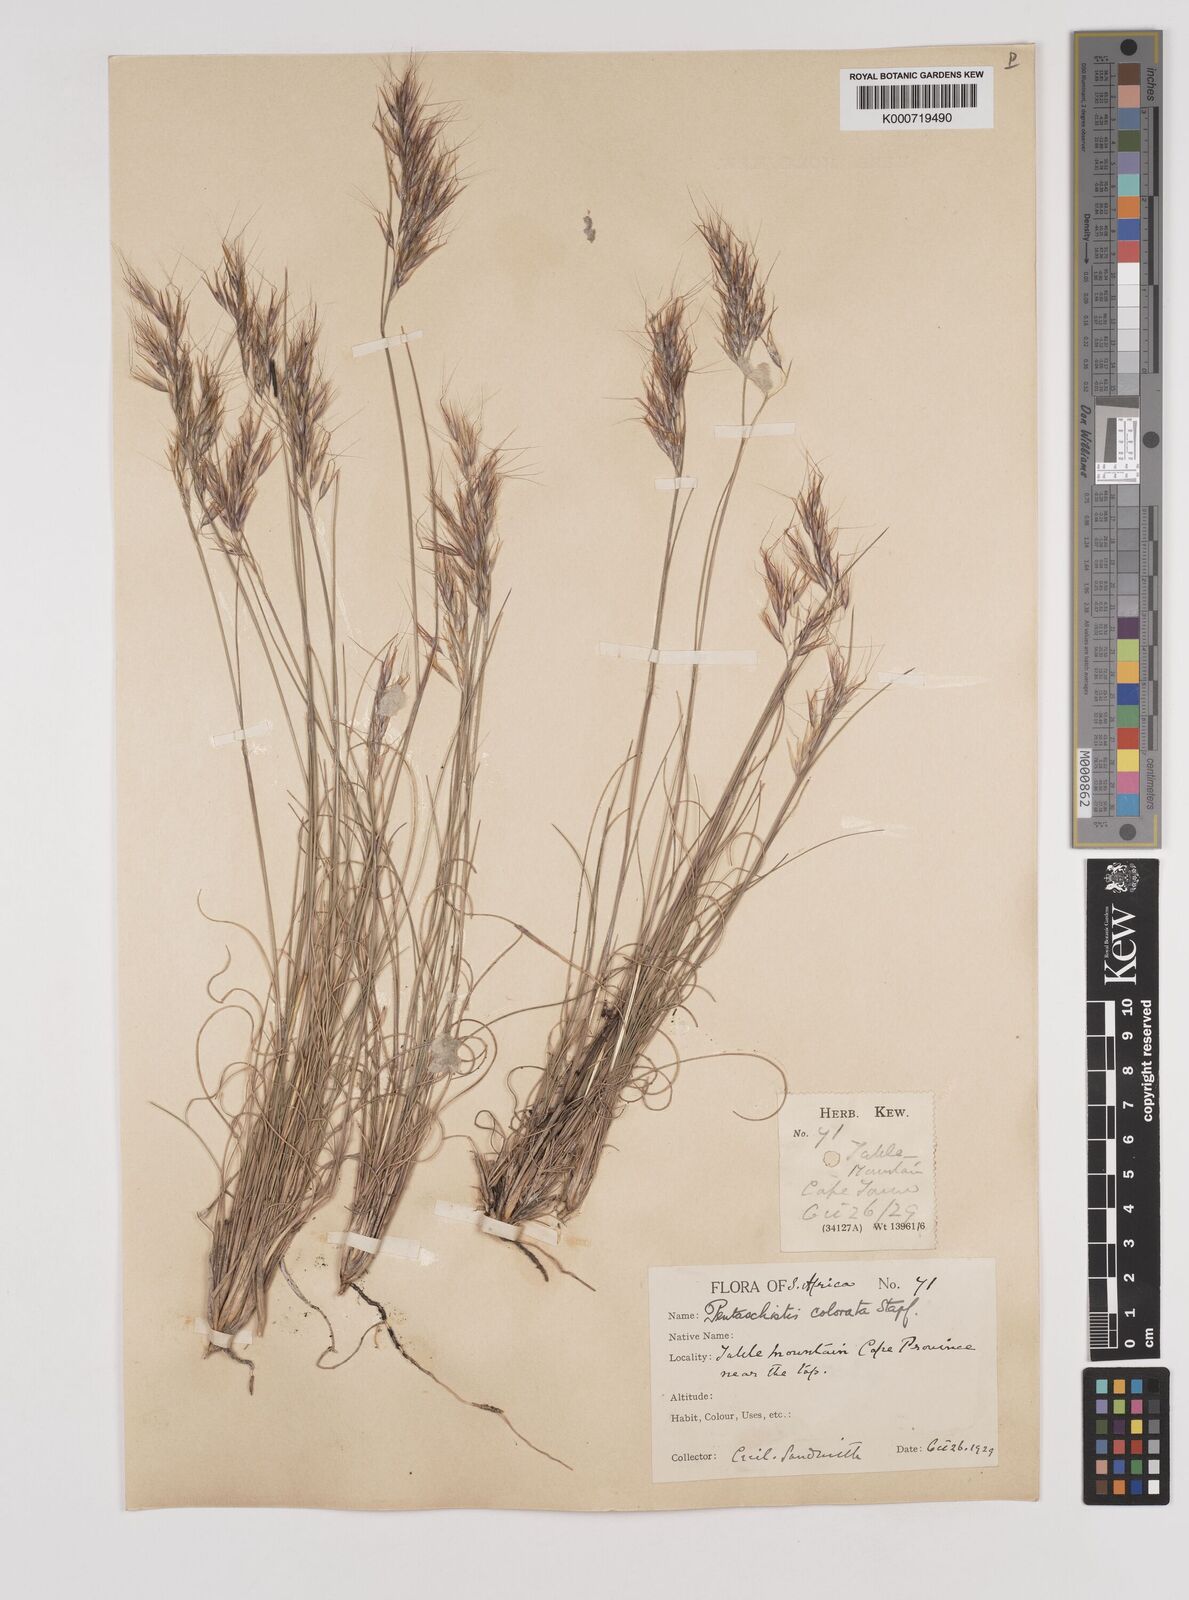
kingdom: Plantae
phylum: Tracheophyta
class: Liliopsida
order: Poales
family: Poaceae
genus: Pentameris
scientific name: Pentameris colorata
